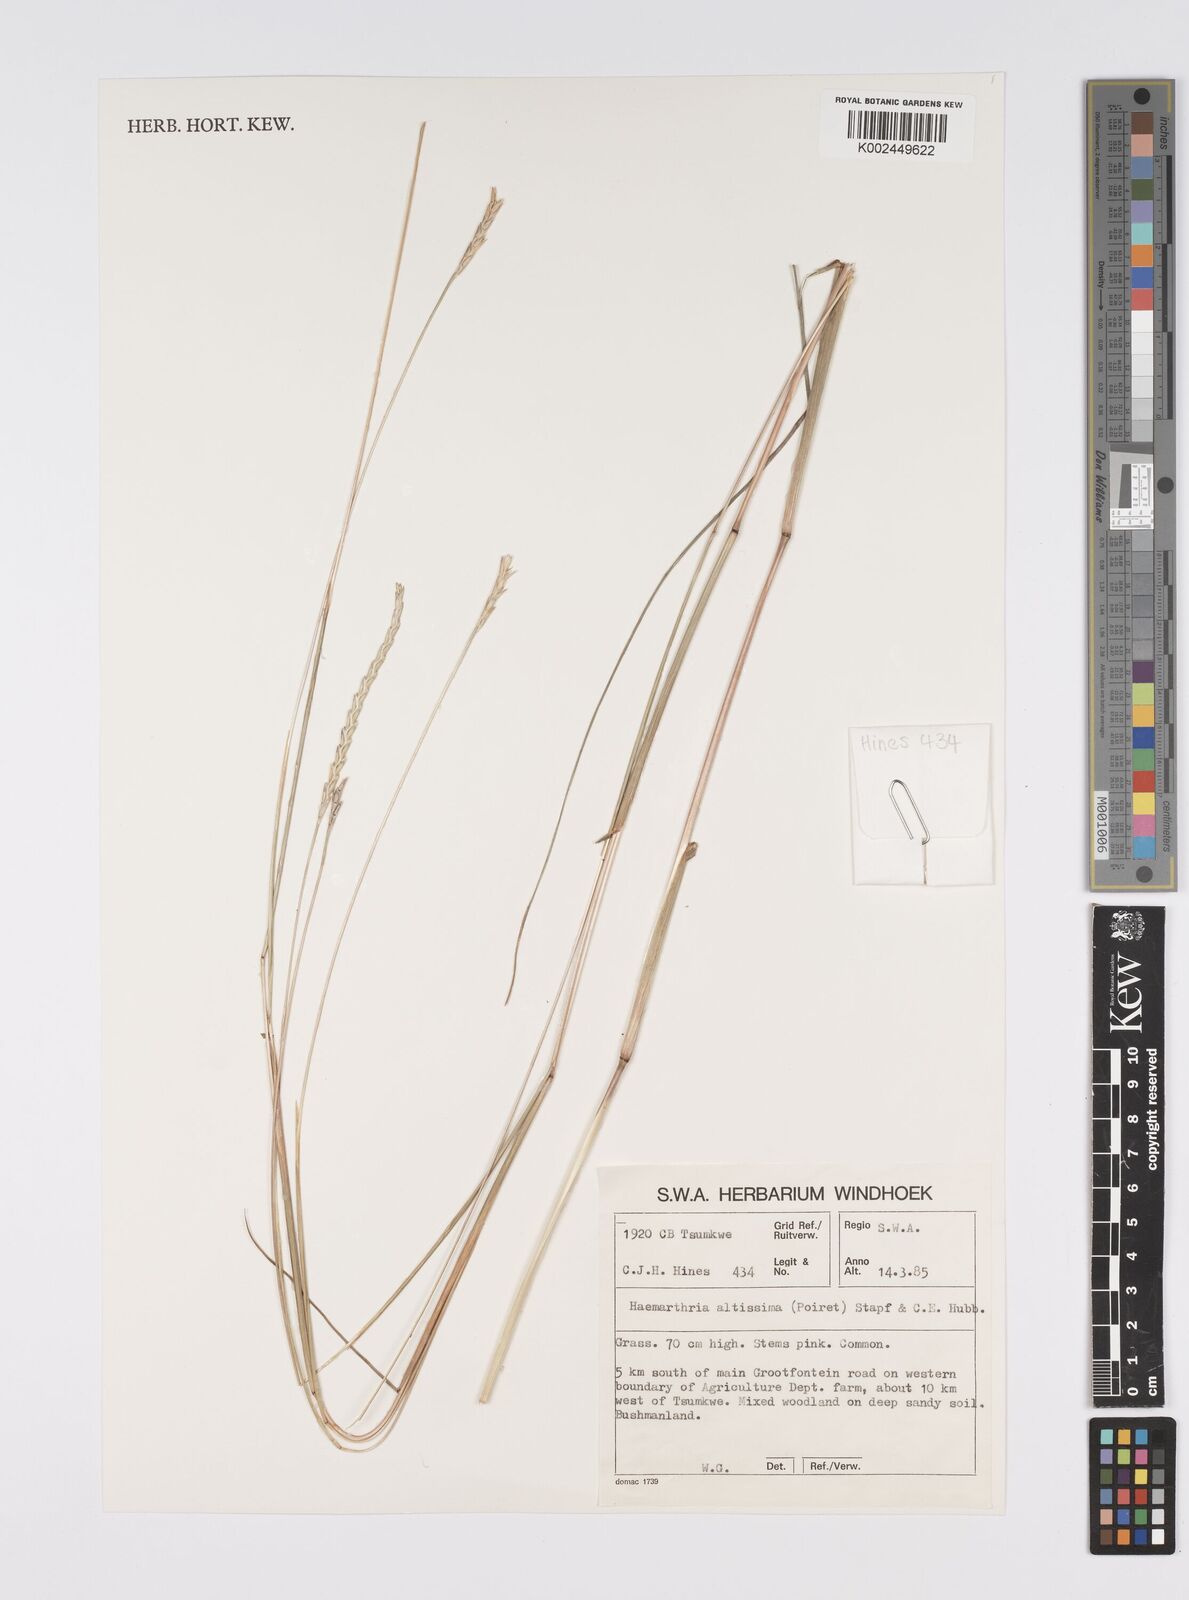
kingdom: Plantae
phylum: Tracheophyta
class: Liliopsida
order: Poales
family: Poaceae
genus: Hemarthria
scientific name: Hemarthria altissima
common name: African jointgrass
